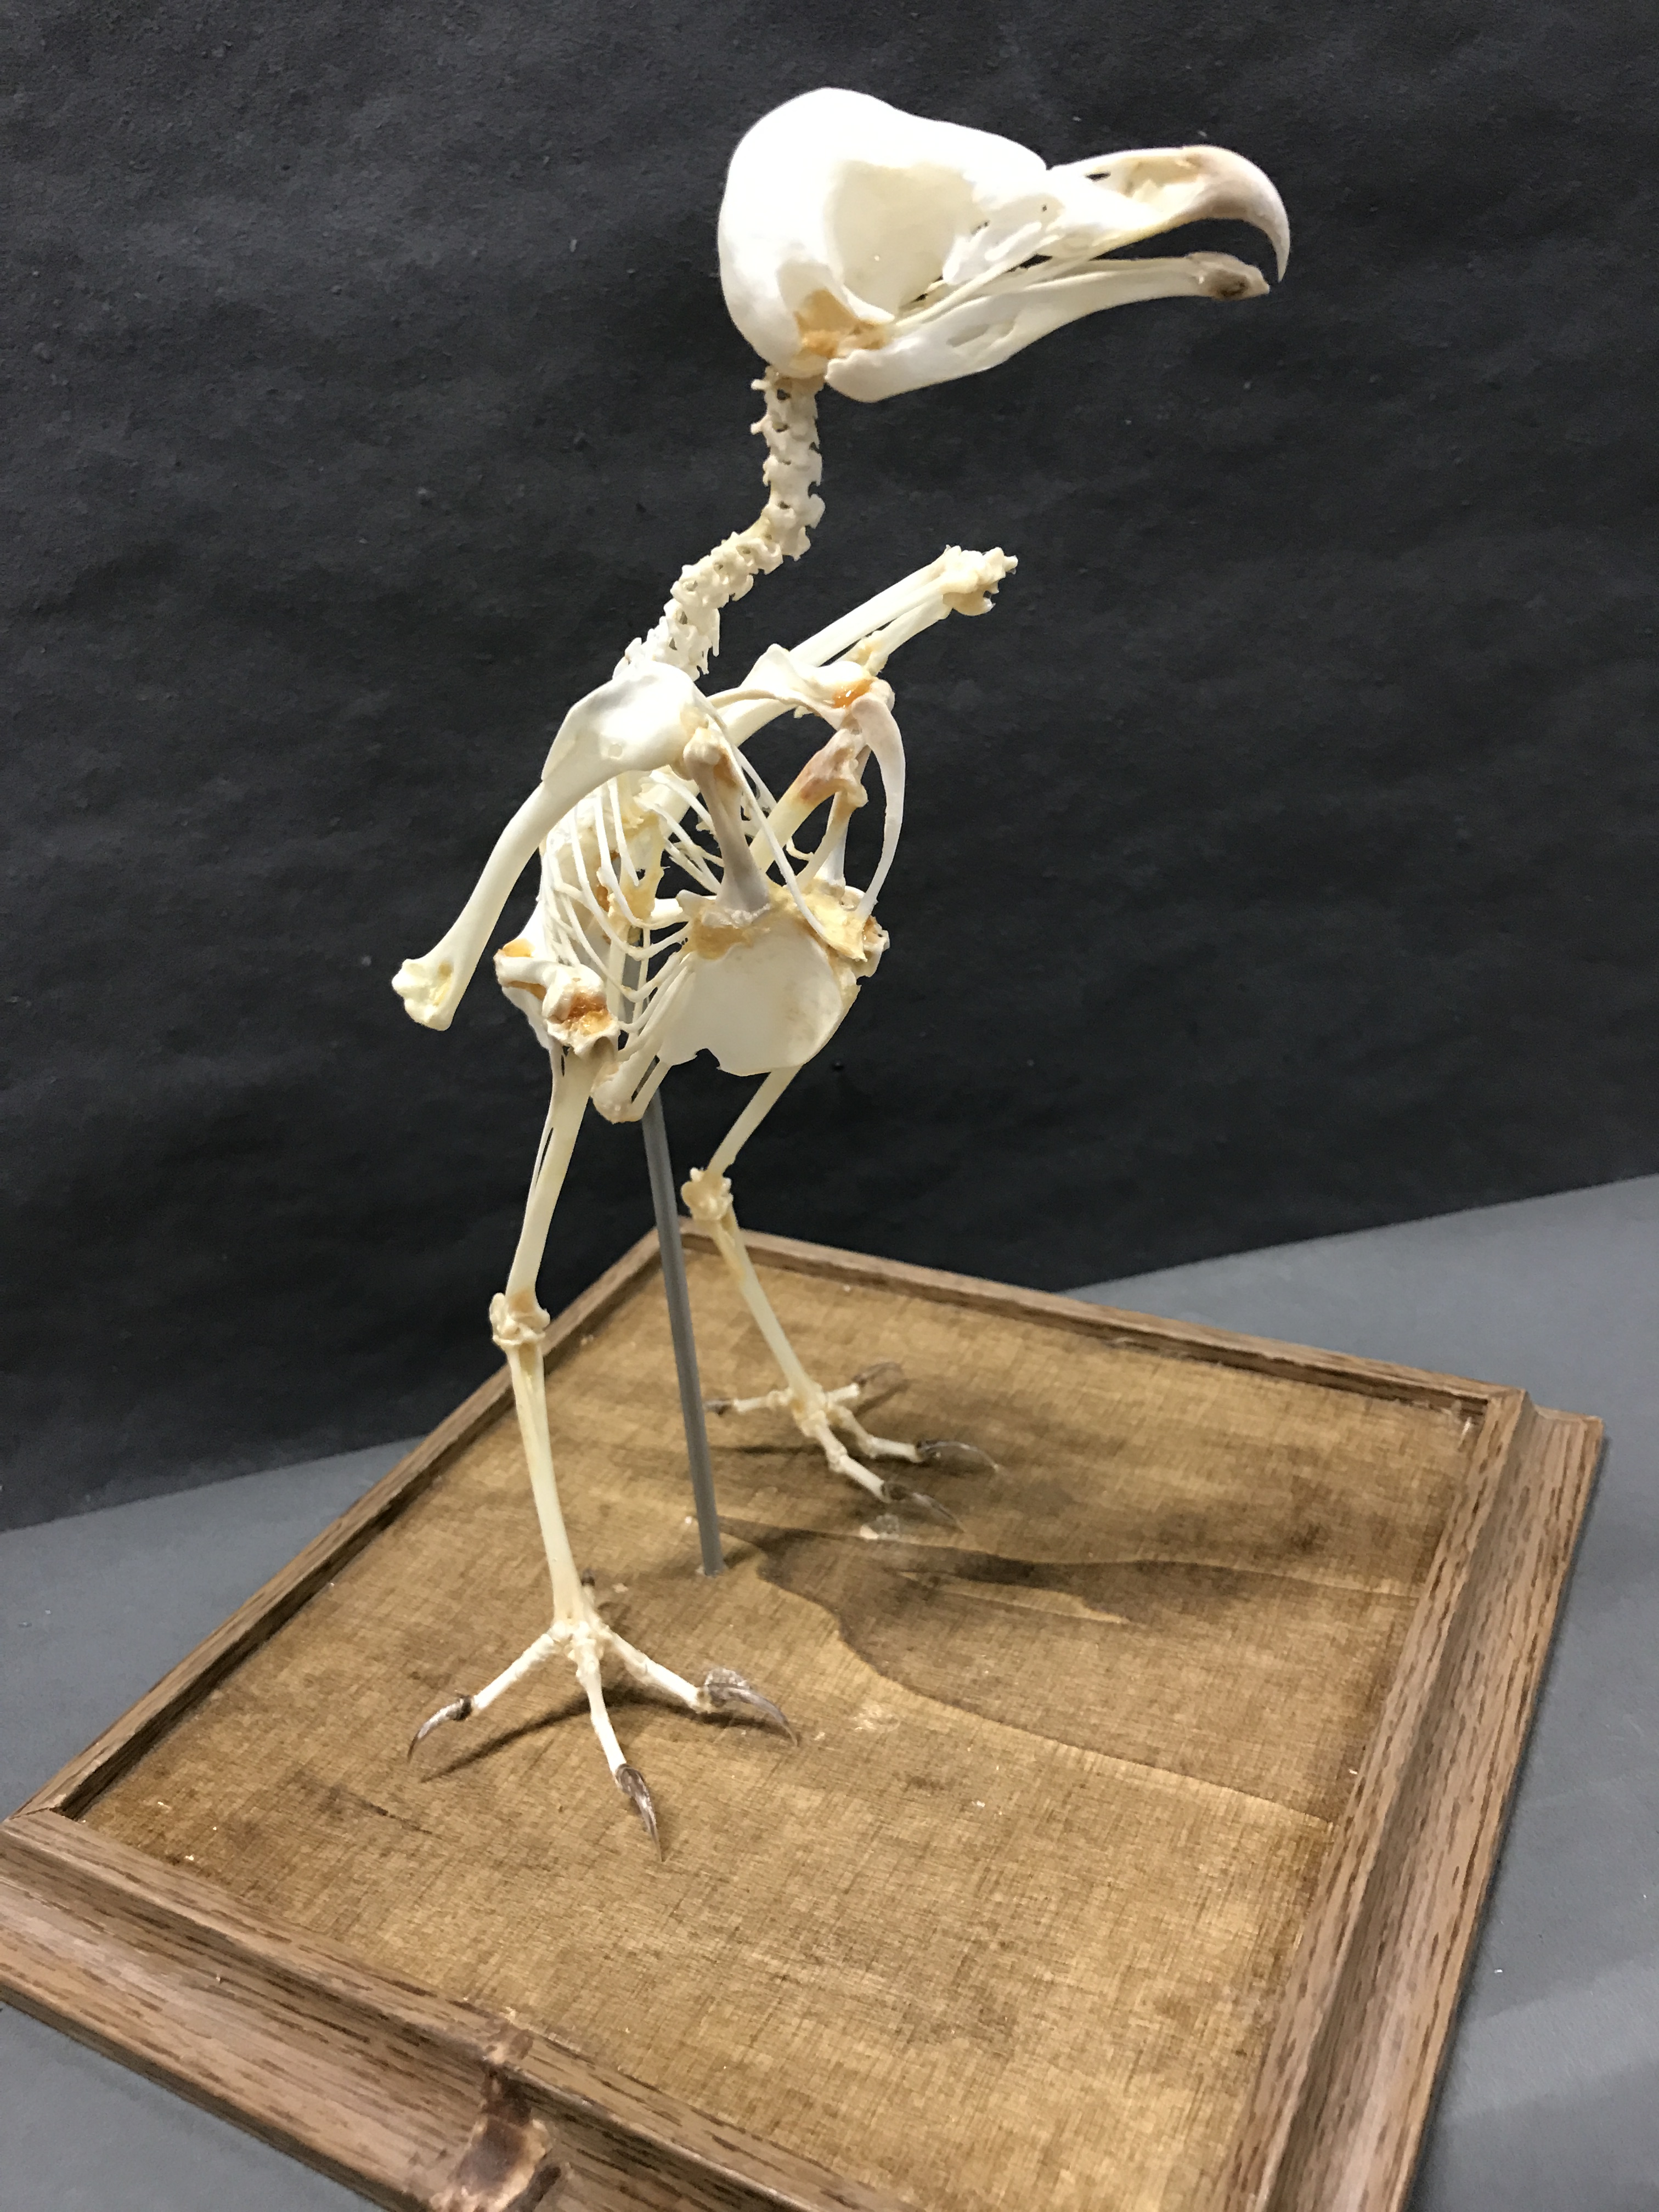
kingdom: Animalia
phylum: Chordata
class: Aves
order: Strigiformes
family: Tytonidae
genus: Tyto
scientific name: Tyto alba
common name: Barn owl
